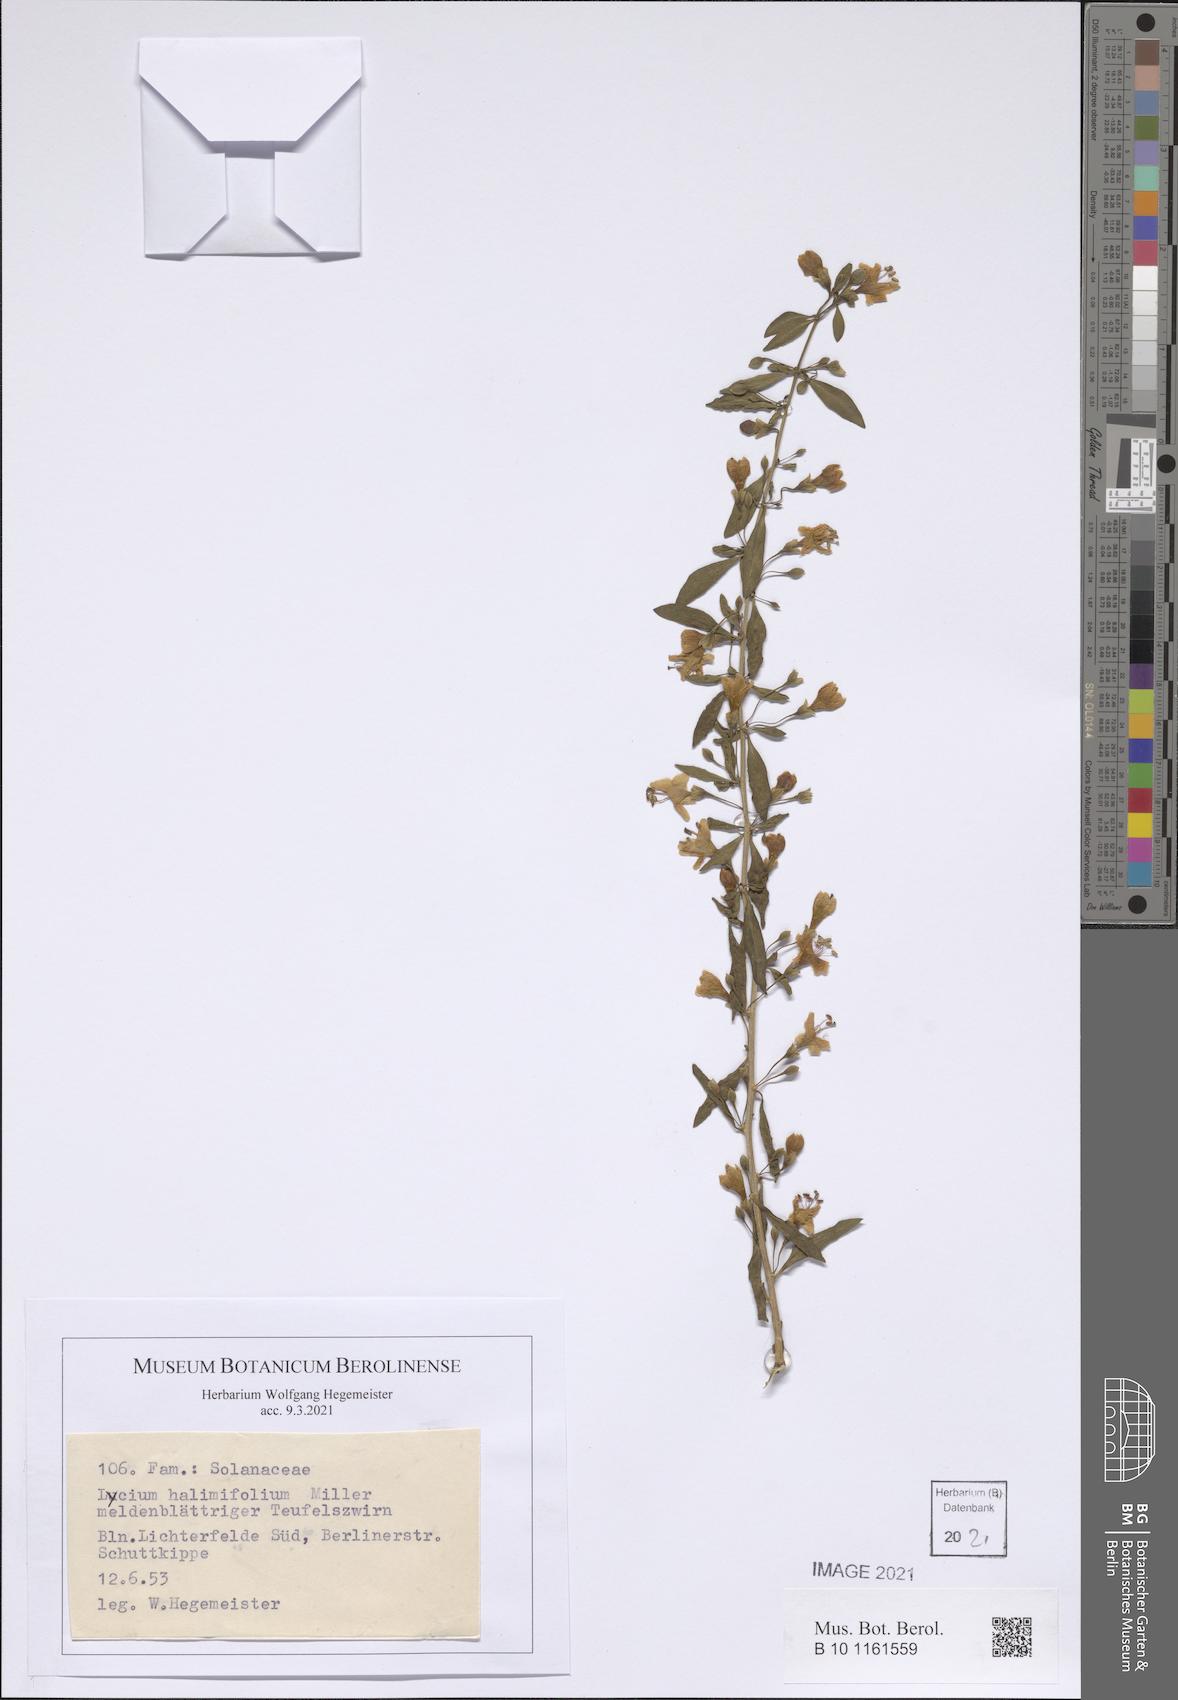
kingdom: Plantae
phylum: Tracheophyta
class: Magnoliopsida
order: Solanales
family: Solanaceae
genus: Lycium
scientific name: Lycium barbarum
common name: Duke of argyll's teaplant
